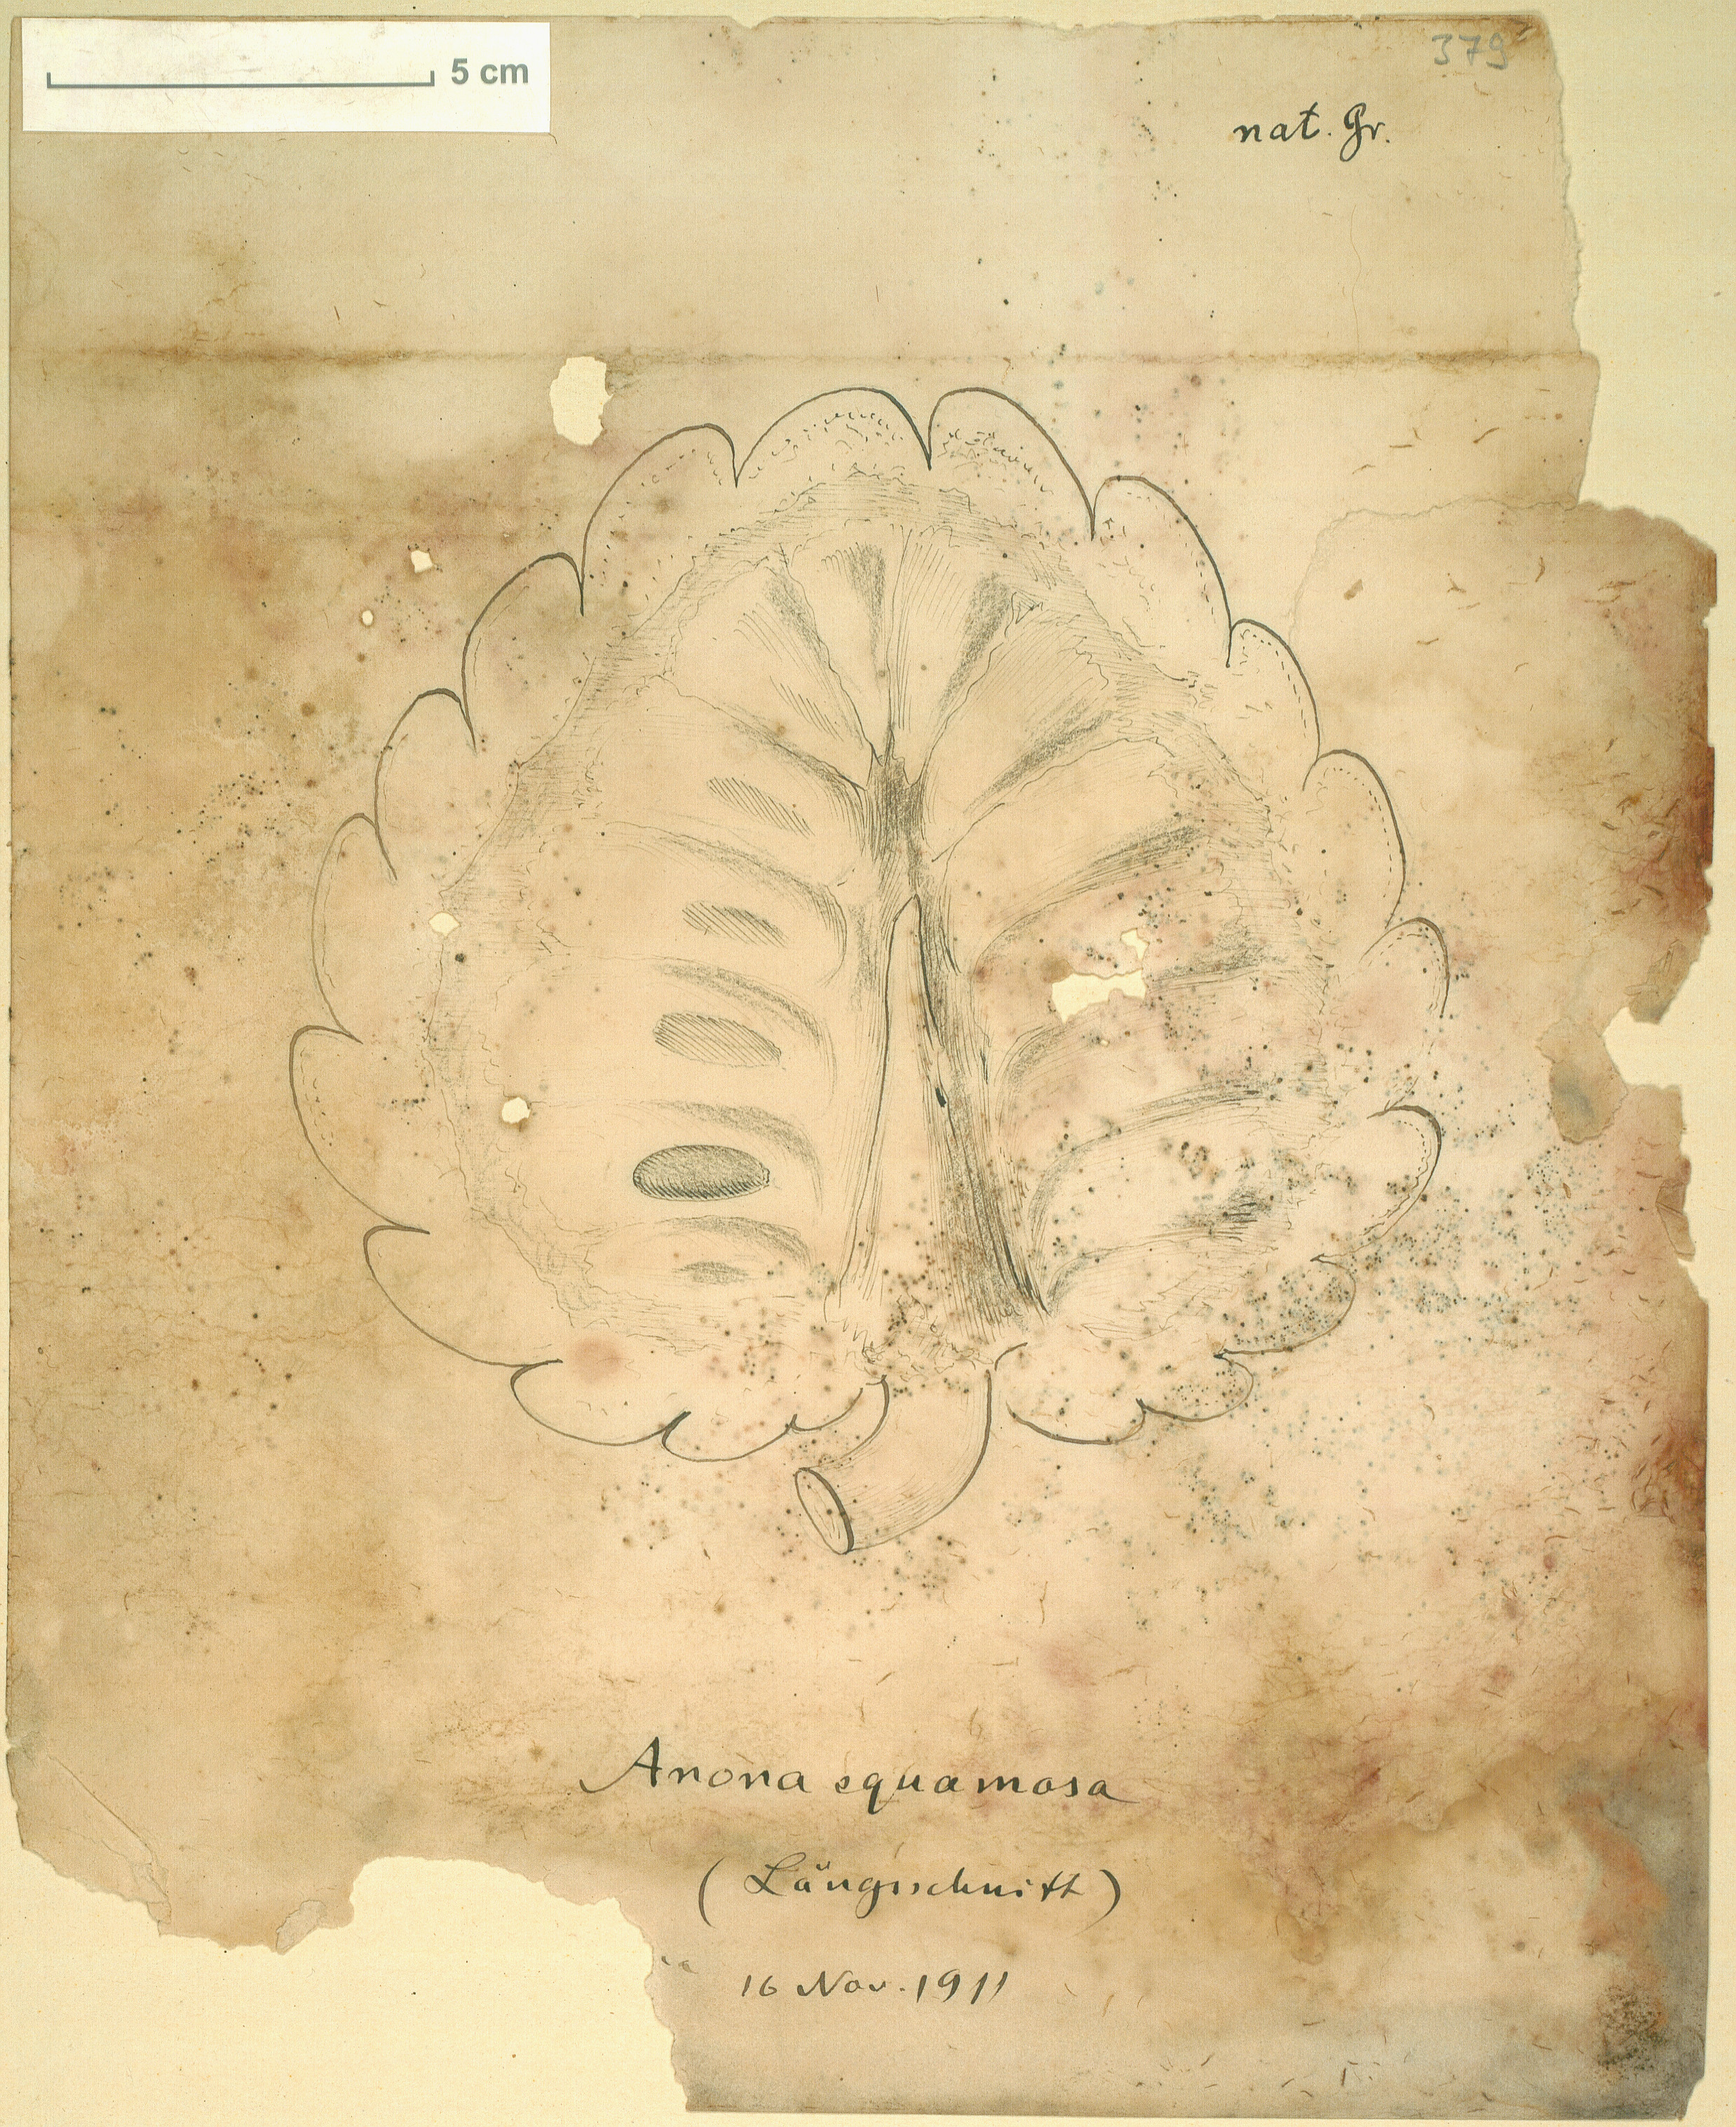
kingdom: Plantae
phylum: Tracheophyta
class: Magnoliopsida
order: Magnoliales
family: Annonaceae
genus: Annona
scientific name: Annona squamosa
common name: Custard-apple
